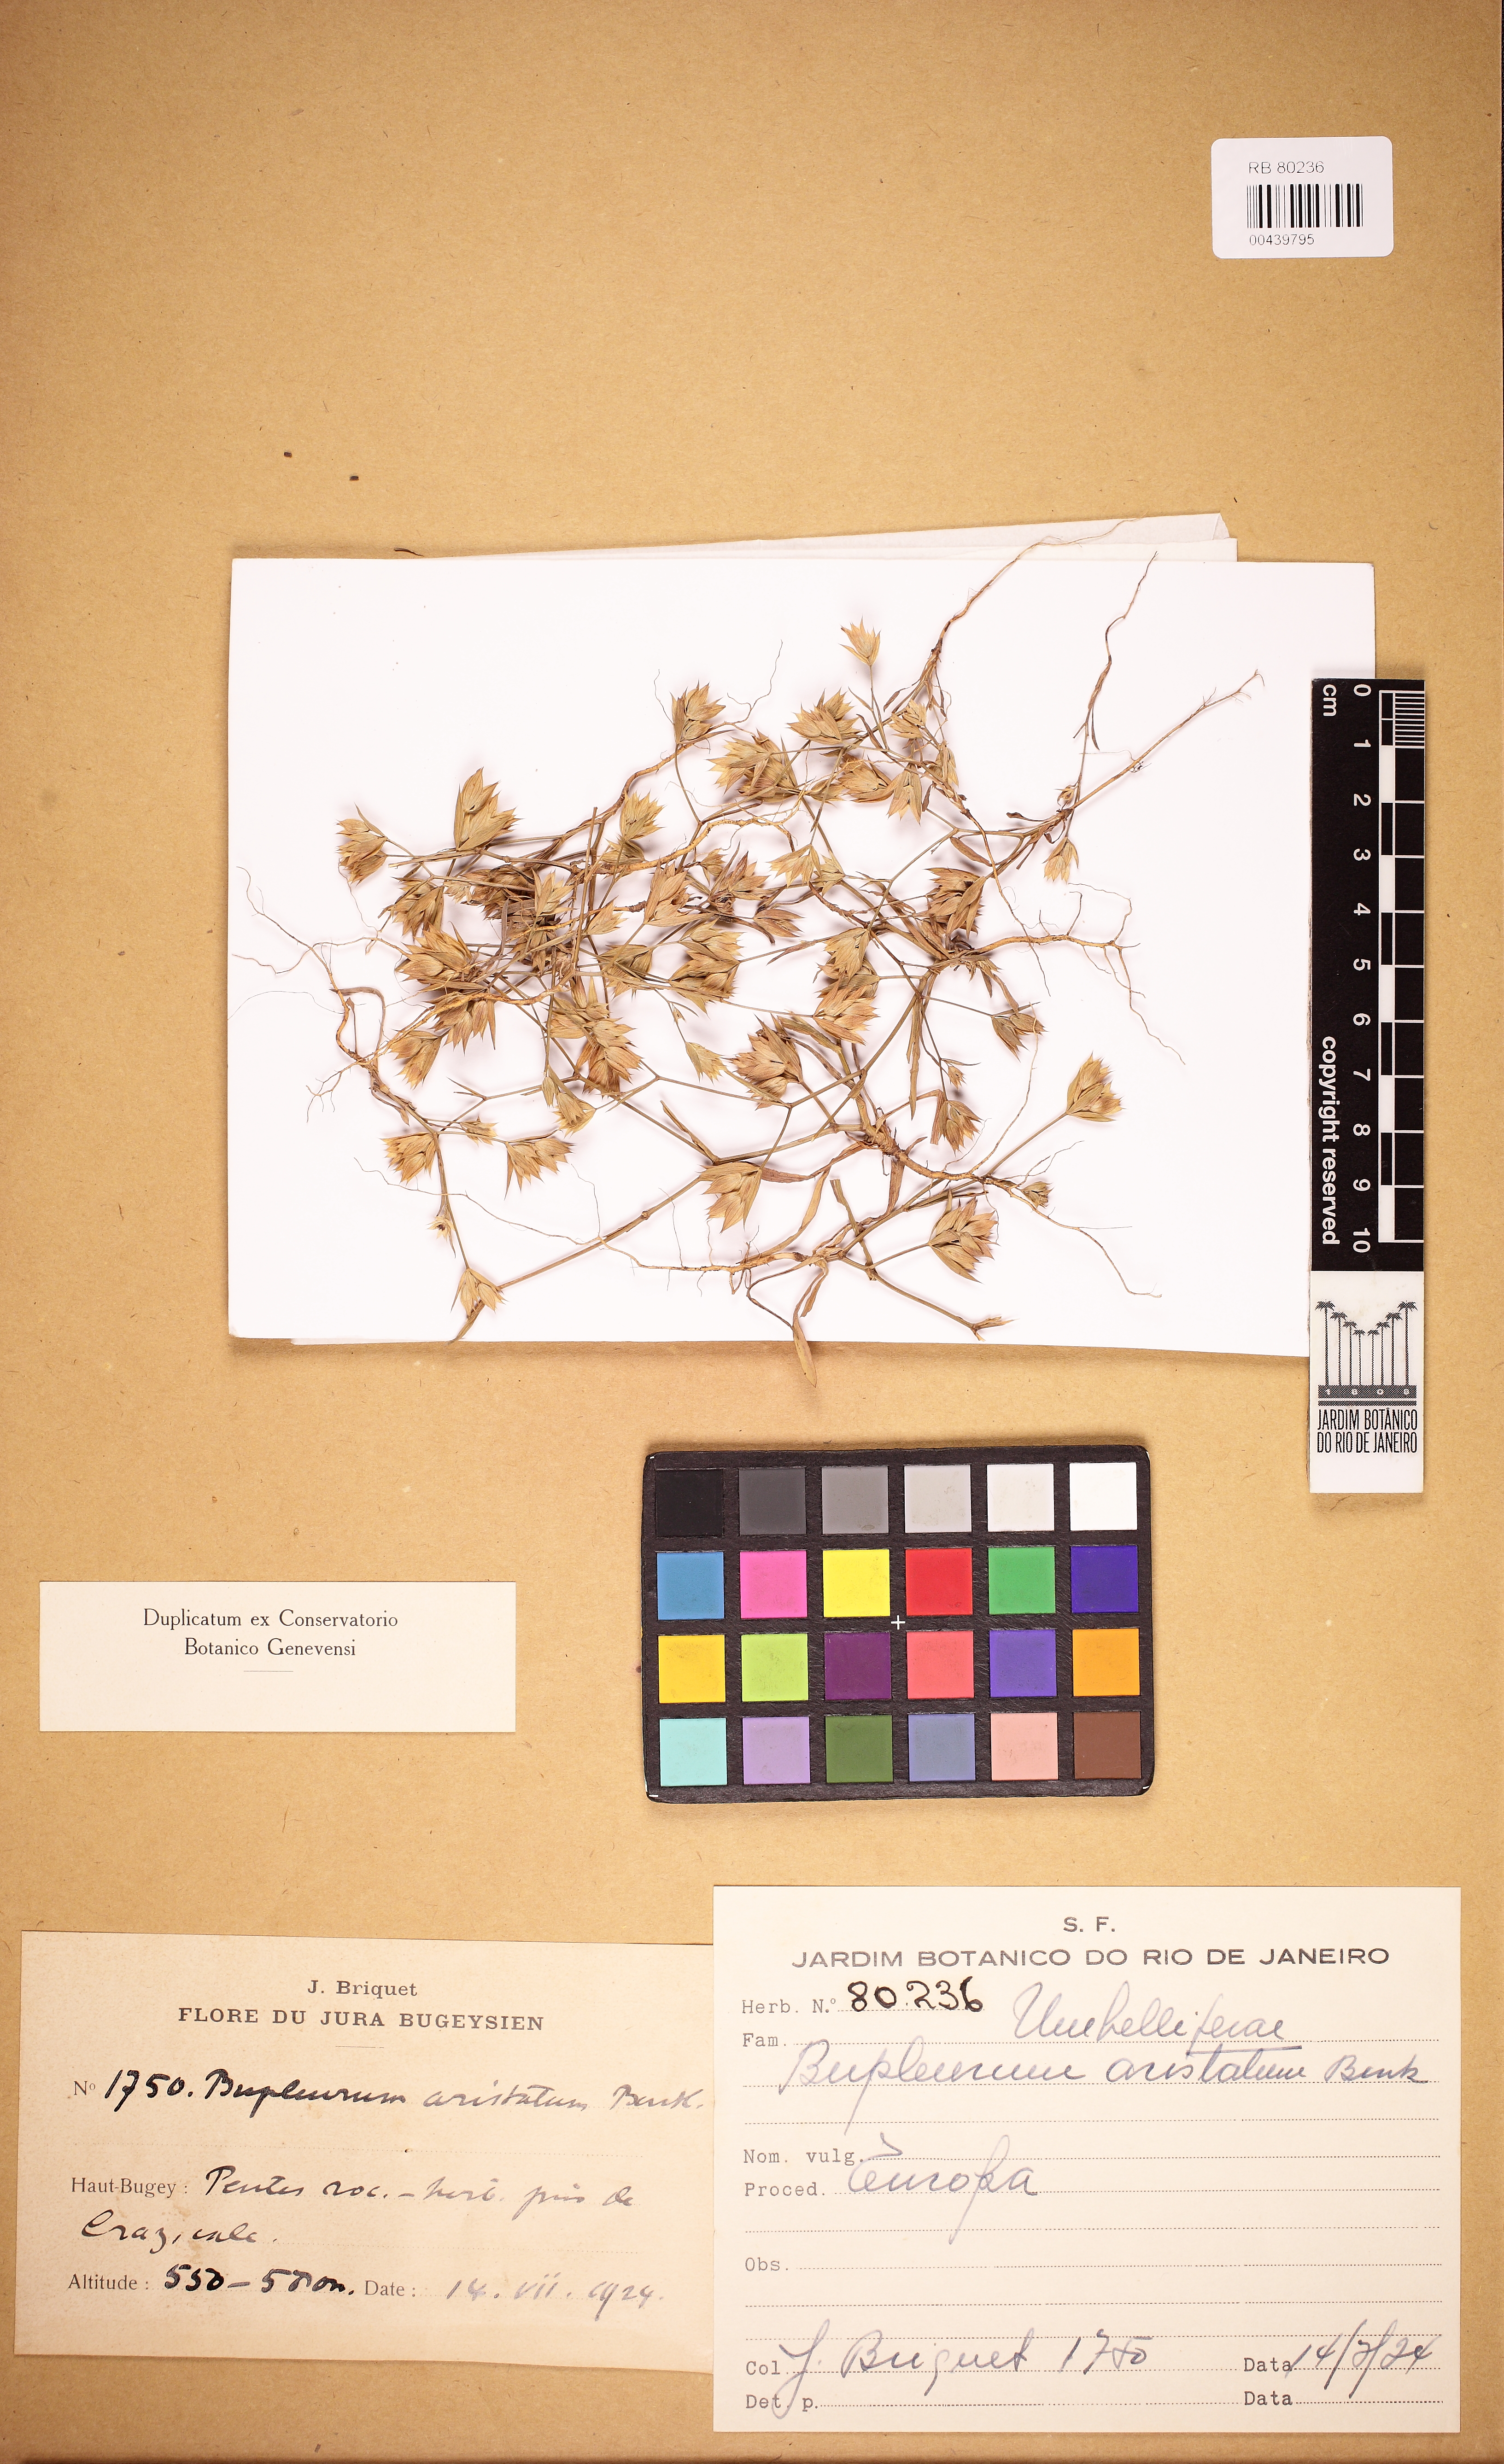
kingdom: Plantae
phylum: Tracheophyta
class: Magnoliopsida
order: Apiales
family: Apiaceae
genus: Bupleurum
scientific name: Bupleurum aristatum
